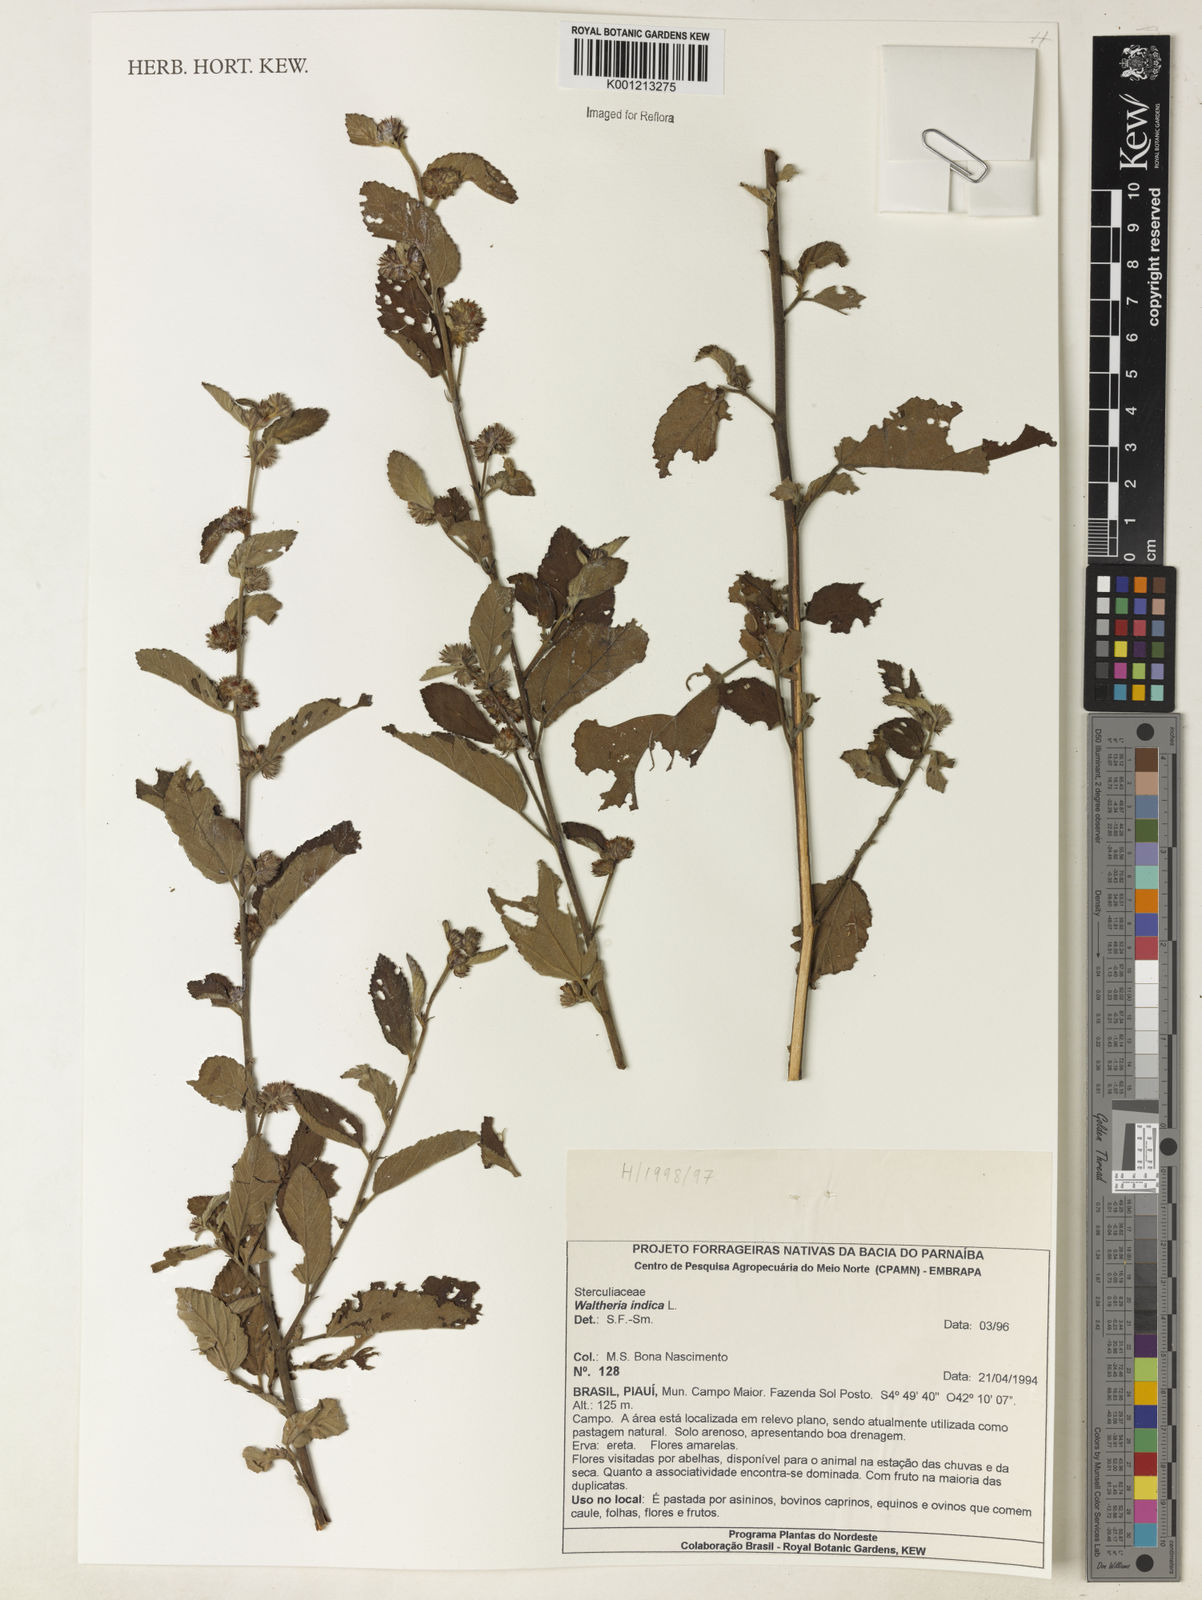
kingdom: Plantae
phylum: Tracheophyta
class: Magnoliopsida
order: Malvales
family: Malvaceae
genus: Waltheria
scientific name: Waltheria indica
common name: Leather-coat
